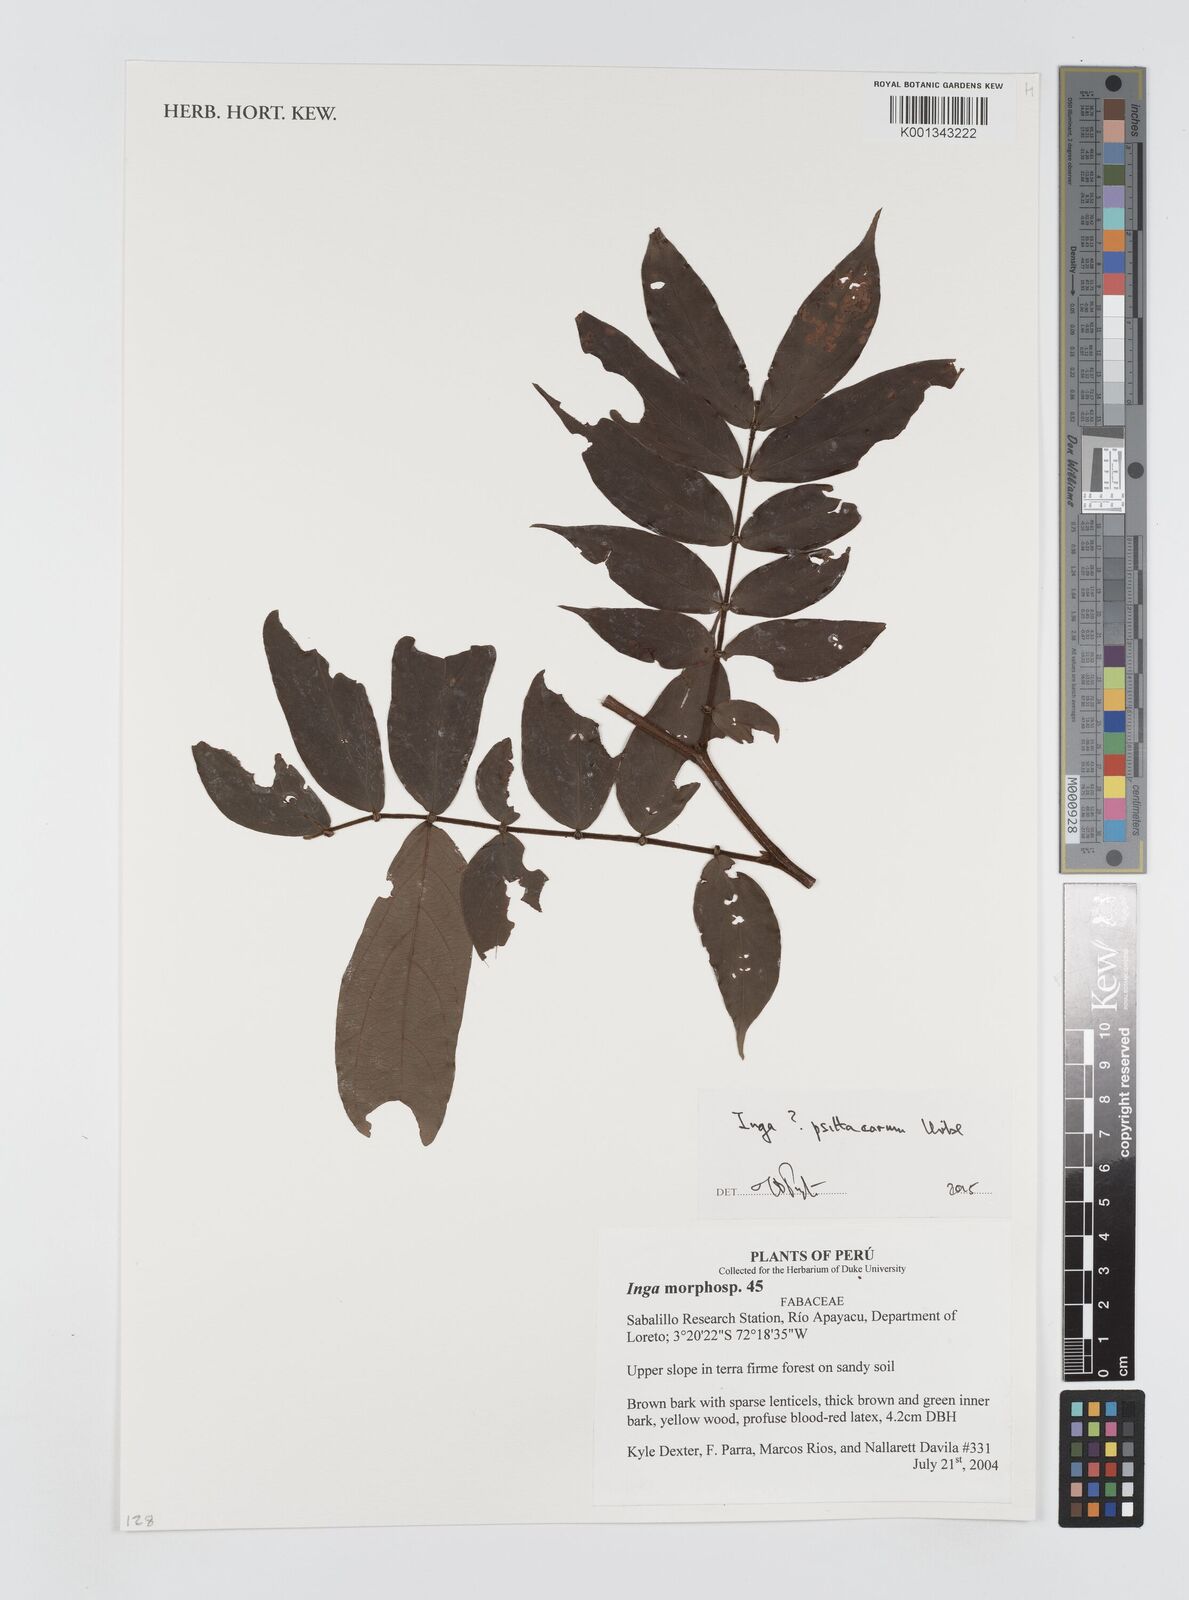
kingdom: Plantae
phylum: Tracheophyta
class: Magnoliopsida
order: Fabales
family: Fabaceae
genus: Inga
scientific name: Inga psittacorum
